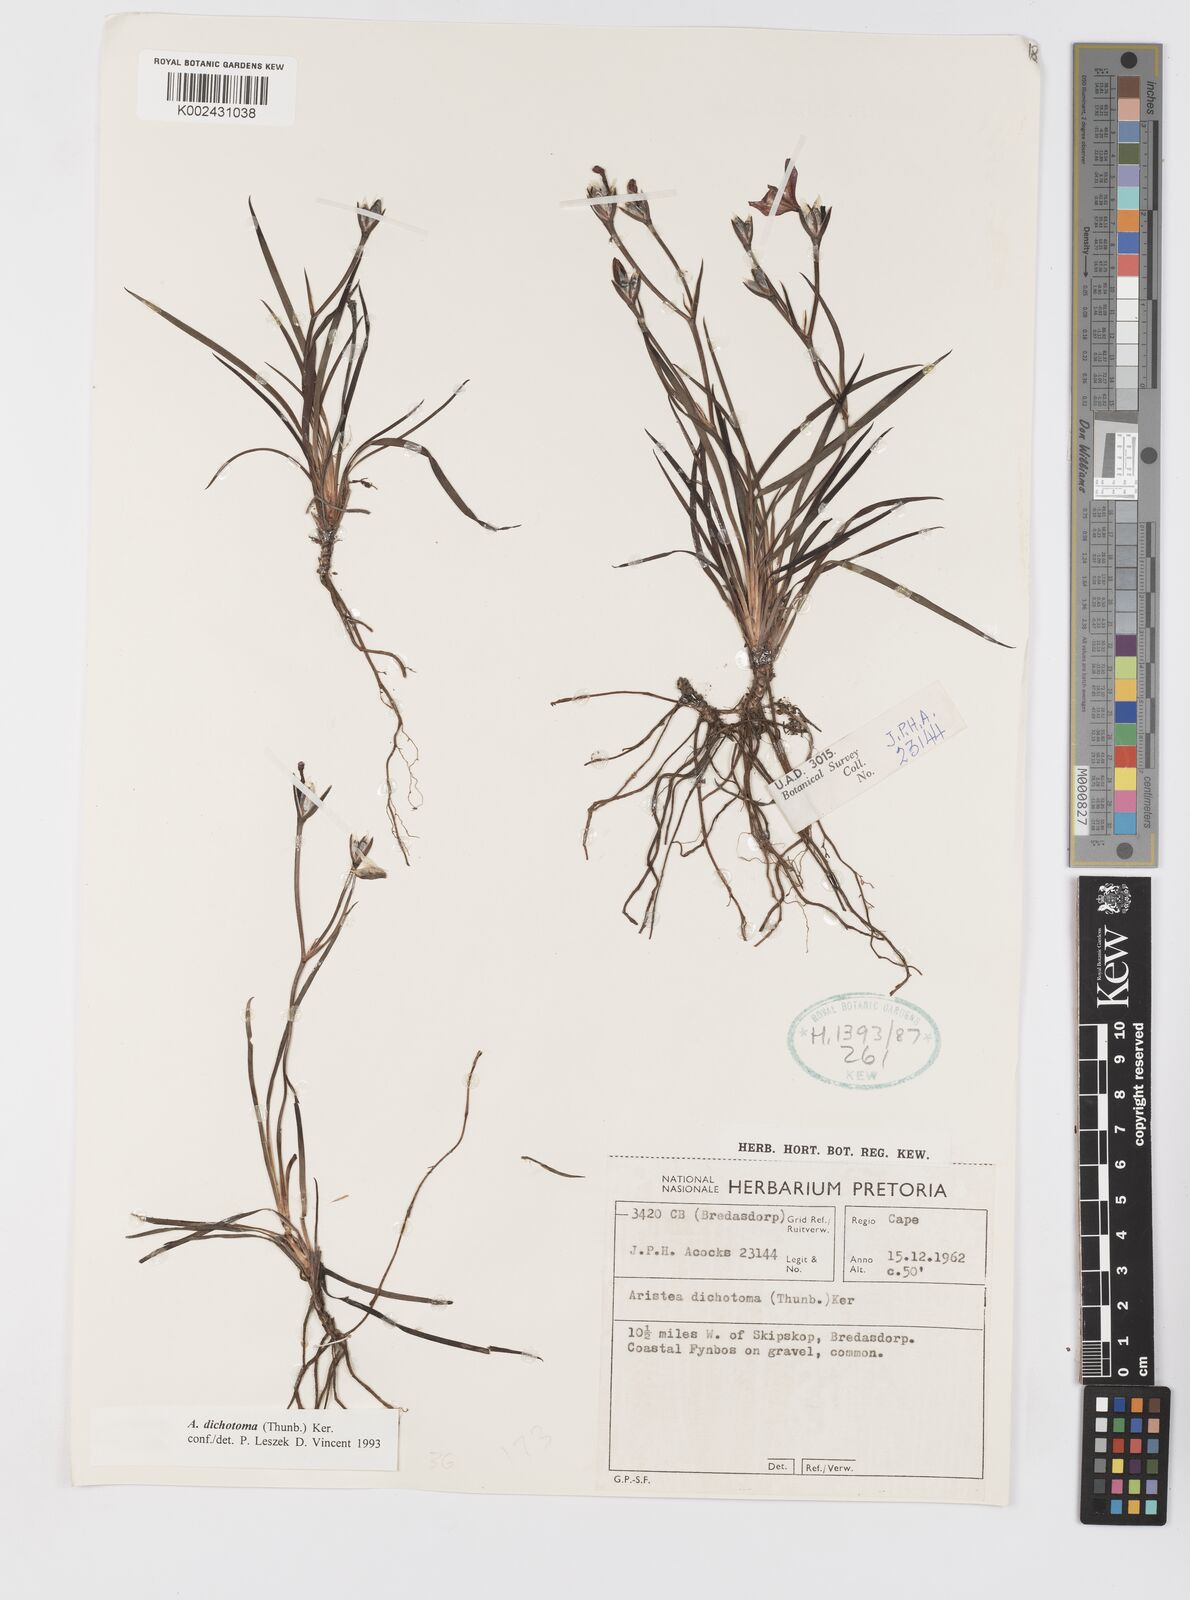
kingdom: Plantae
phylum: Tracheophyta
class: Liliopsida
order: Asparagales
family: Iridaceae
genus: Aristea
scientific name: Aristea dichotoma
